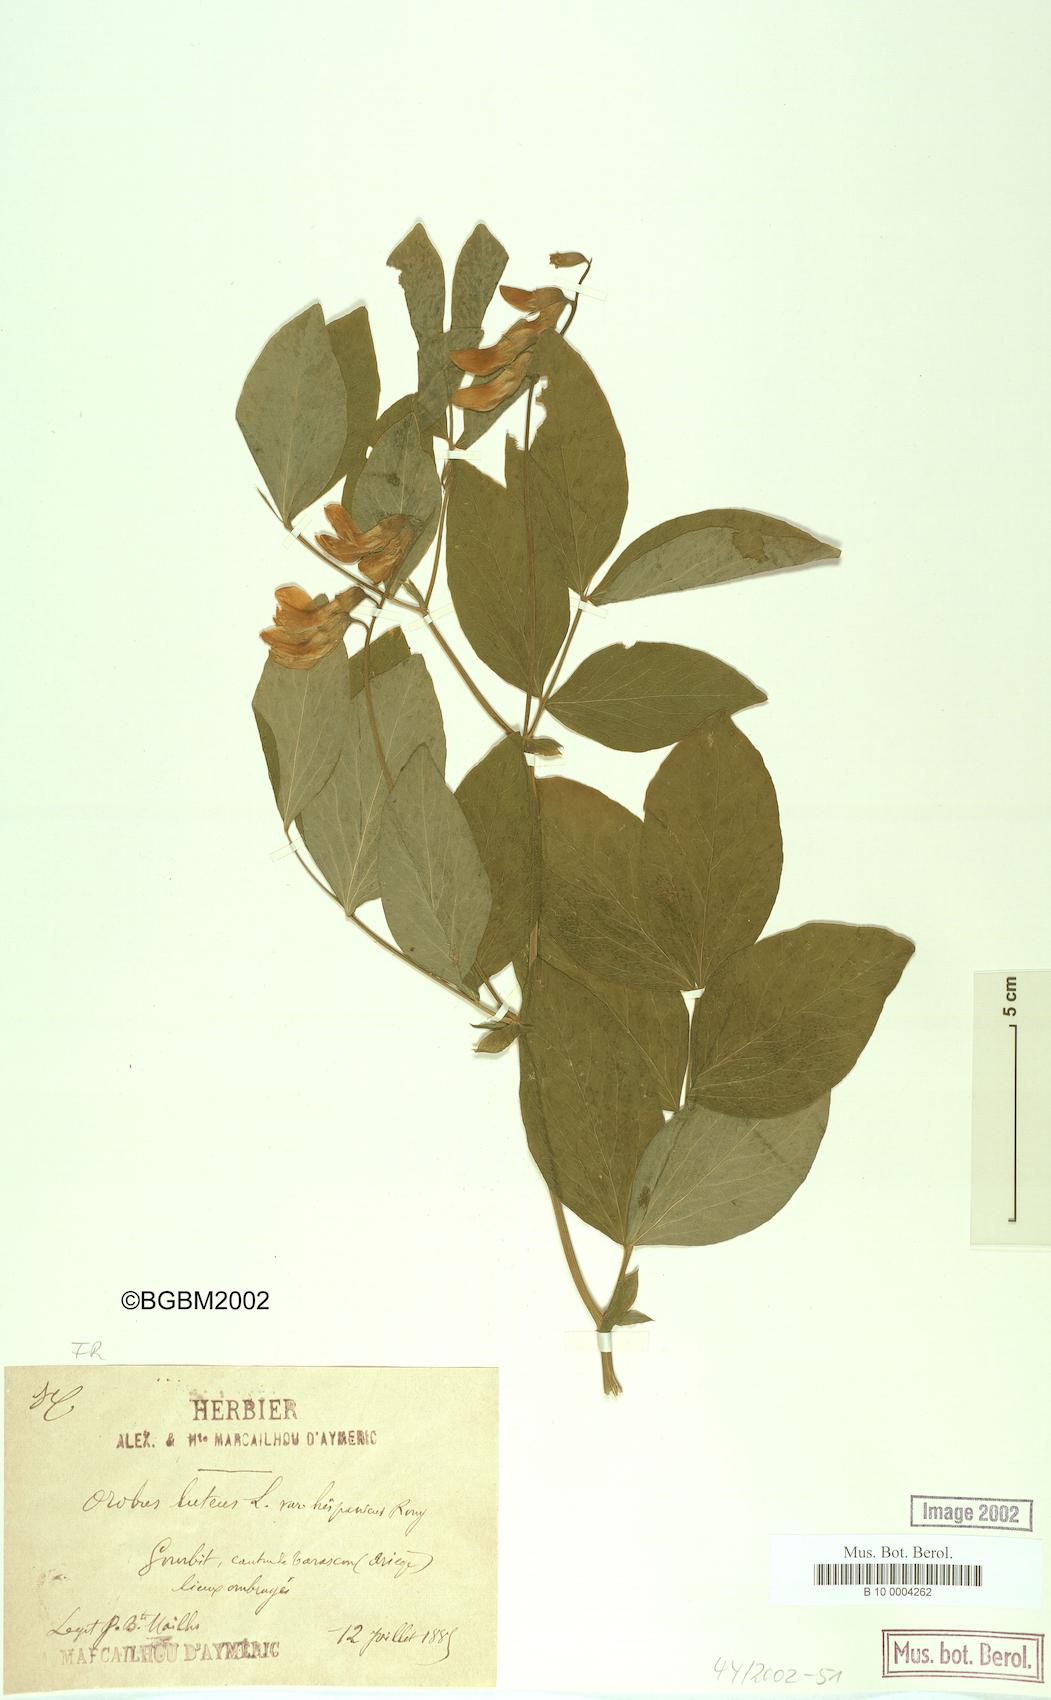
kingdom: Plantae
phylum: Tracheophyta
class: Magnoliopsida
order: Fabales
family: Fabaceae
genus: Lathyrus
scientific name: Lathyrus gmelinii
